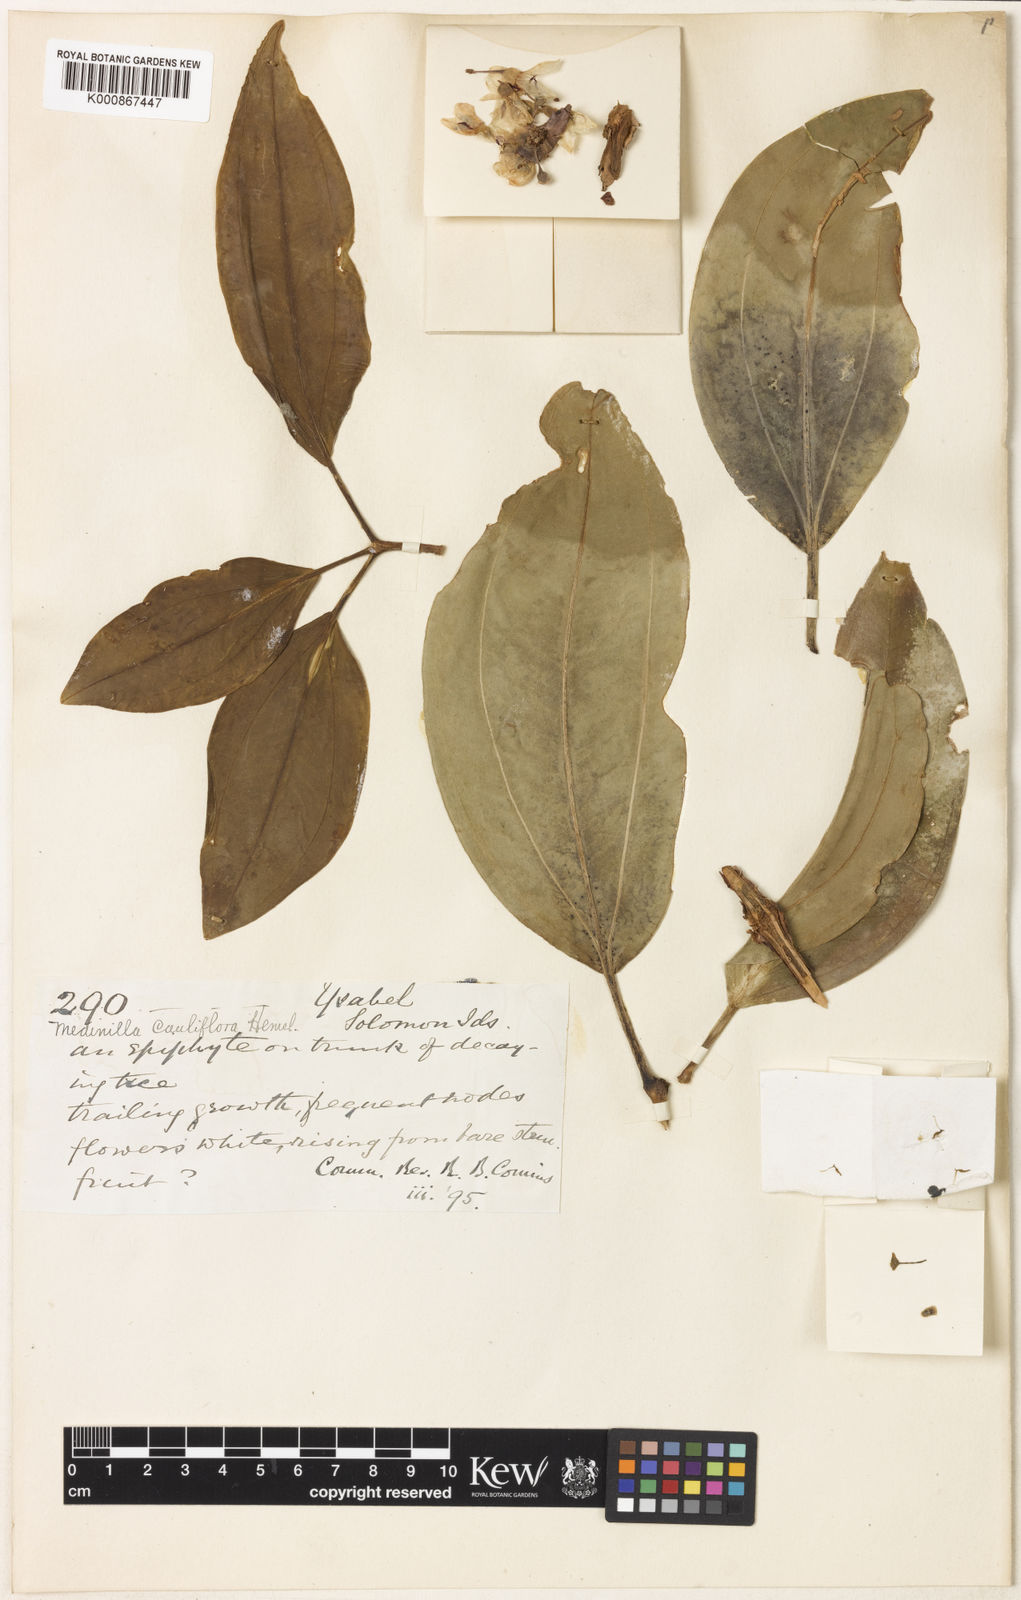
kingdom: Plantae
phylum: Tracheophyta
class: Magnoliopsida
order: Myrtales
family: Melastomataceae
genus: Medinilla
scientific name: Medinilla cauliflora
